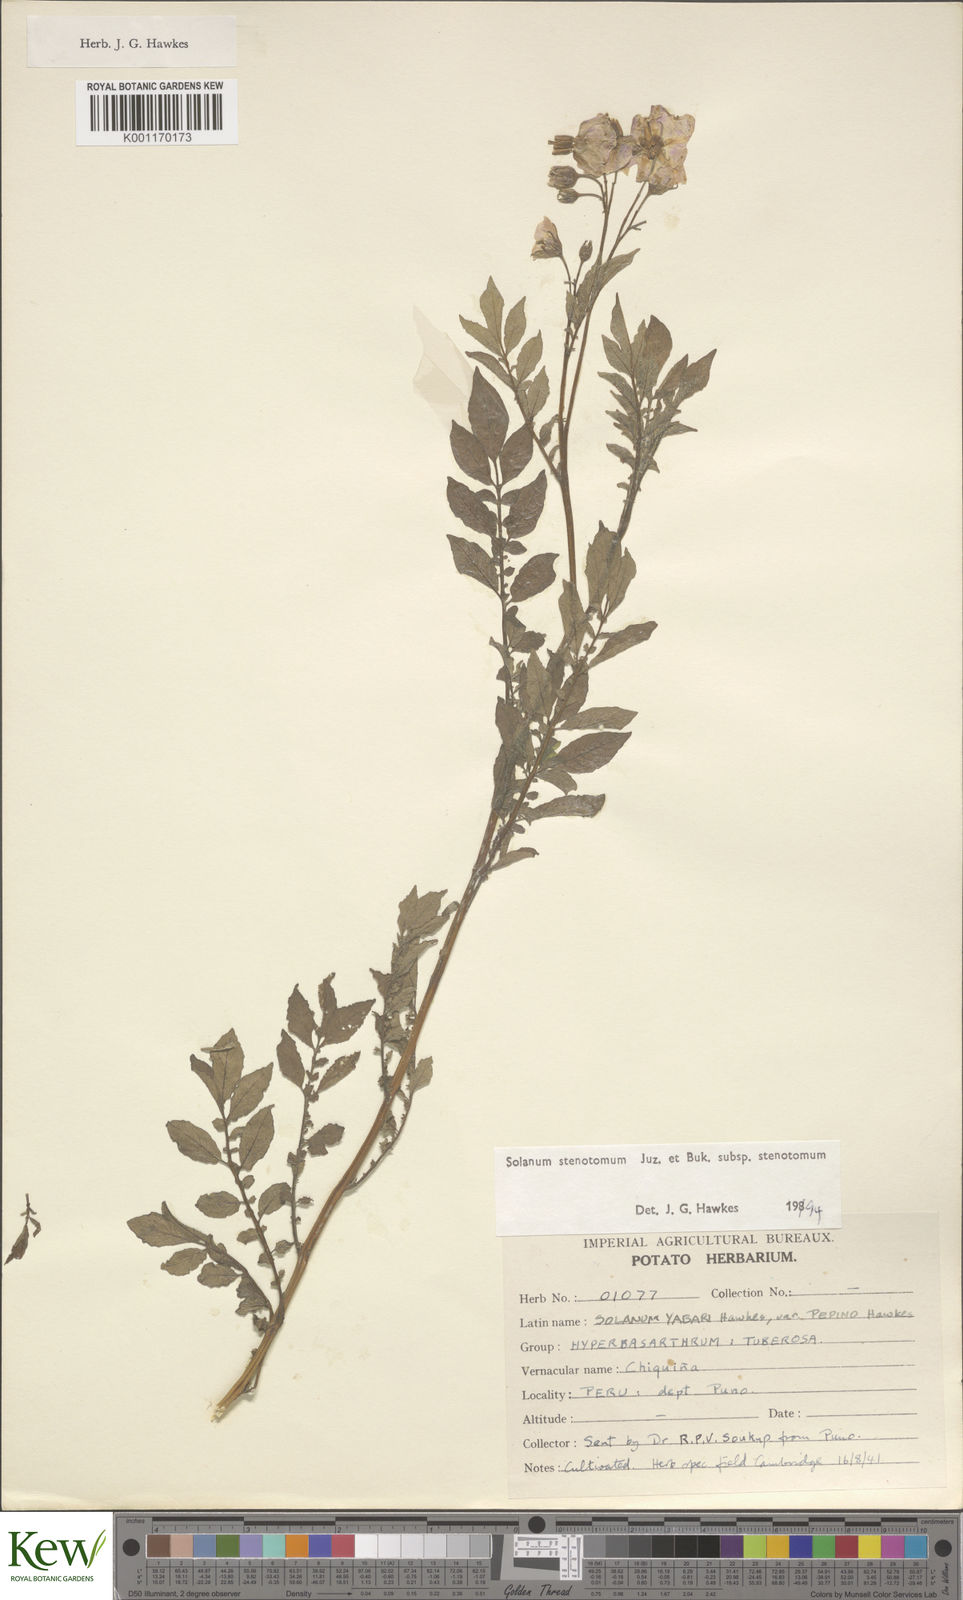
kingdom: Plantae
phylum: Tracheophyta
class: Magnoliopsida
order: Solanales
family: Solanaceae
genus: Solanum
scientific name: Solanum tuberosum
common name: Potato
